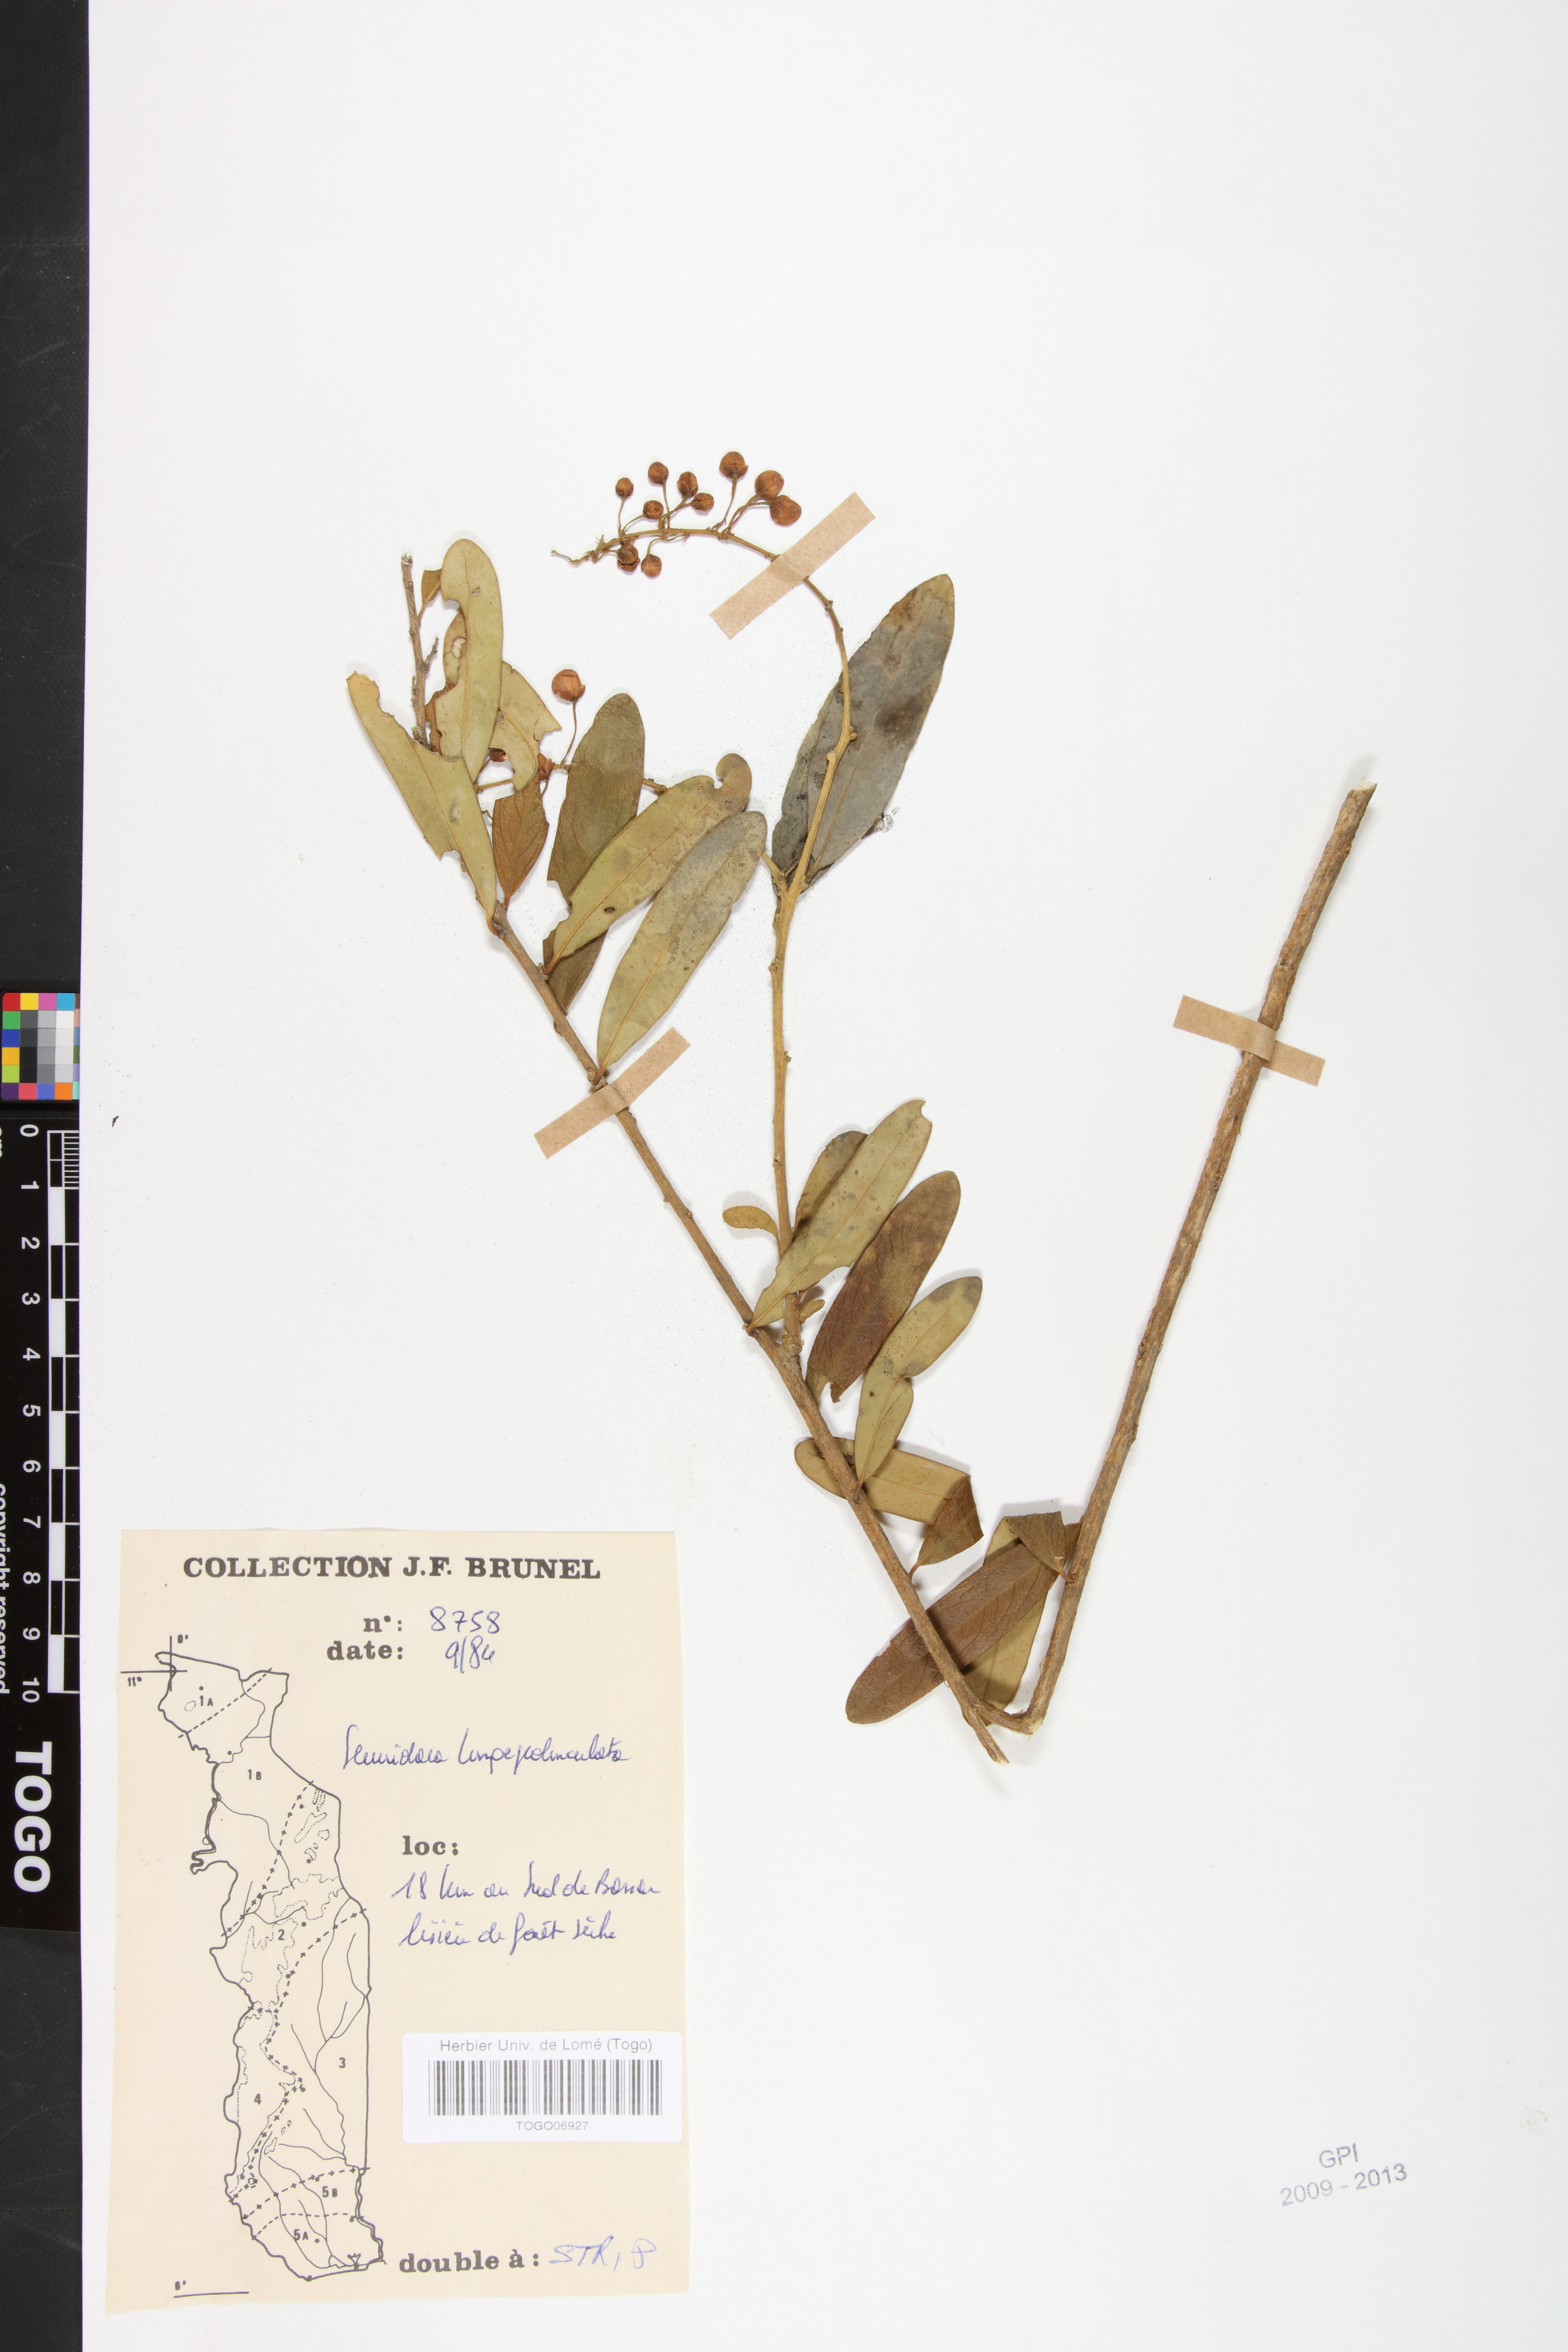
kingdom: Plantae
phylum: Tracheophyta
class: Magnoliopsida
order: Fabales
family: Polygalaceae
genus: Securidaca
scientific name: Securidaca longepedunculata
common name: Violet tree
